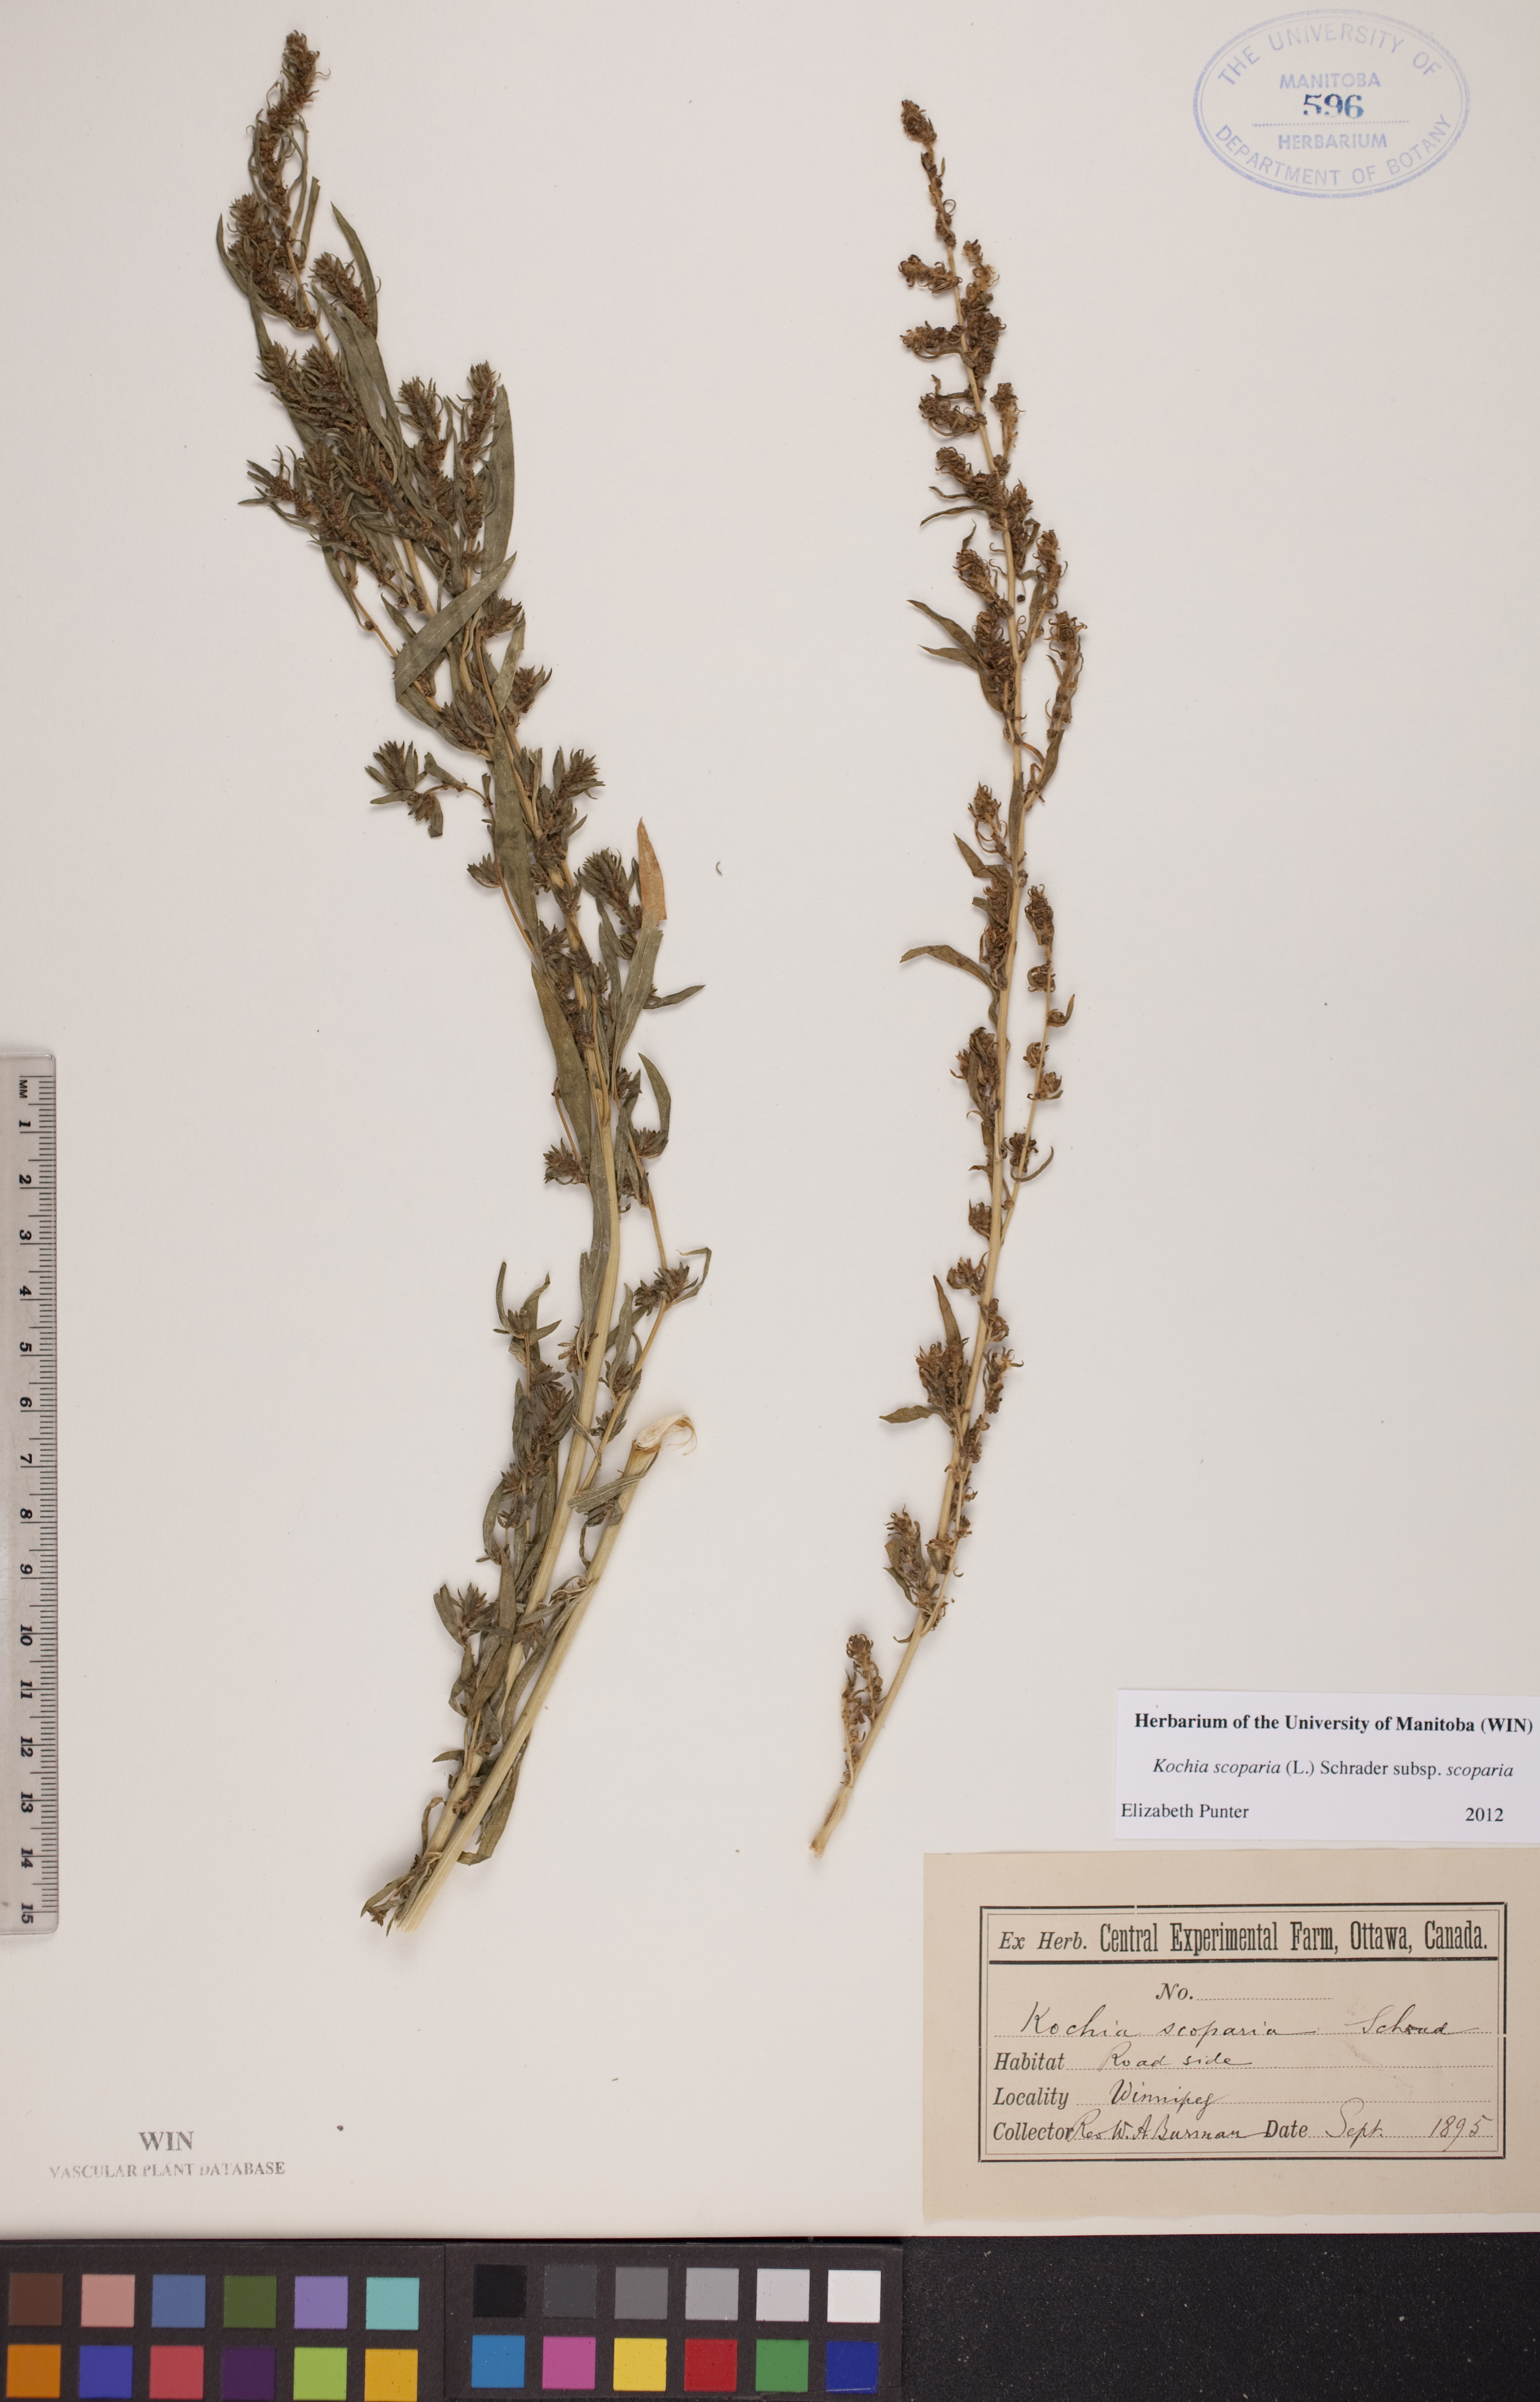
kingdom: Plantae
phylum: Tracheophyta
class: Magnoliopsida
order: Caryophyllales
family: Amaranthaceae
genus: Bassia
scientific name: Bassia scoparia
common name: Belvedere
